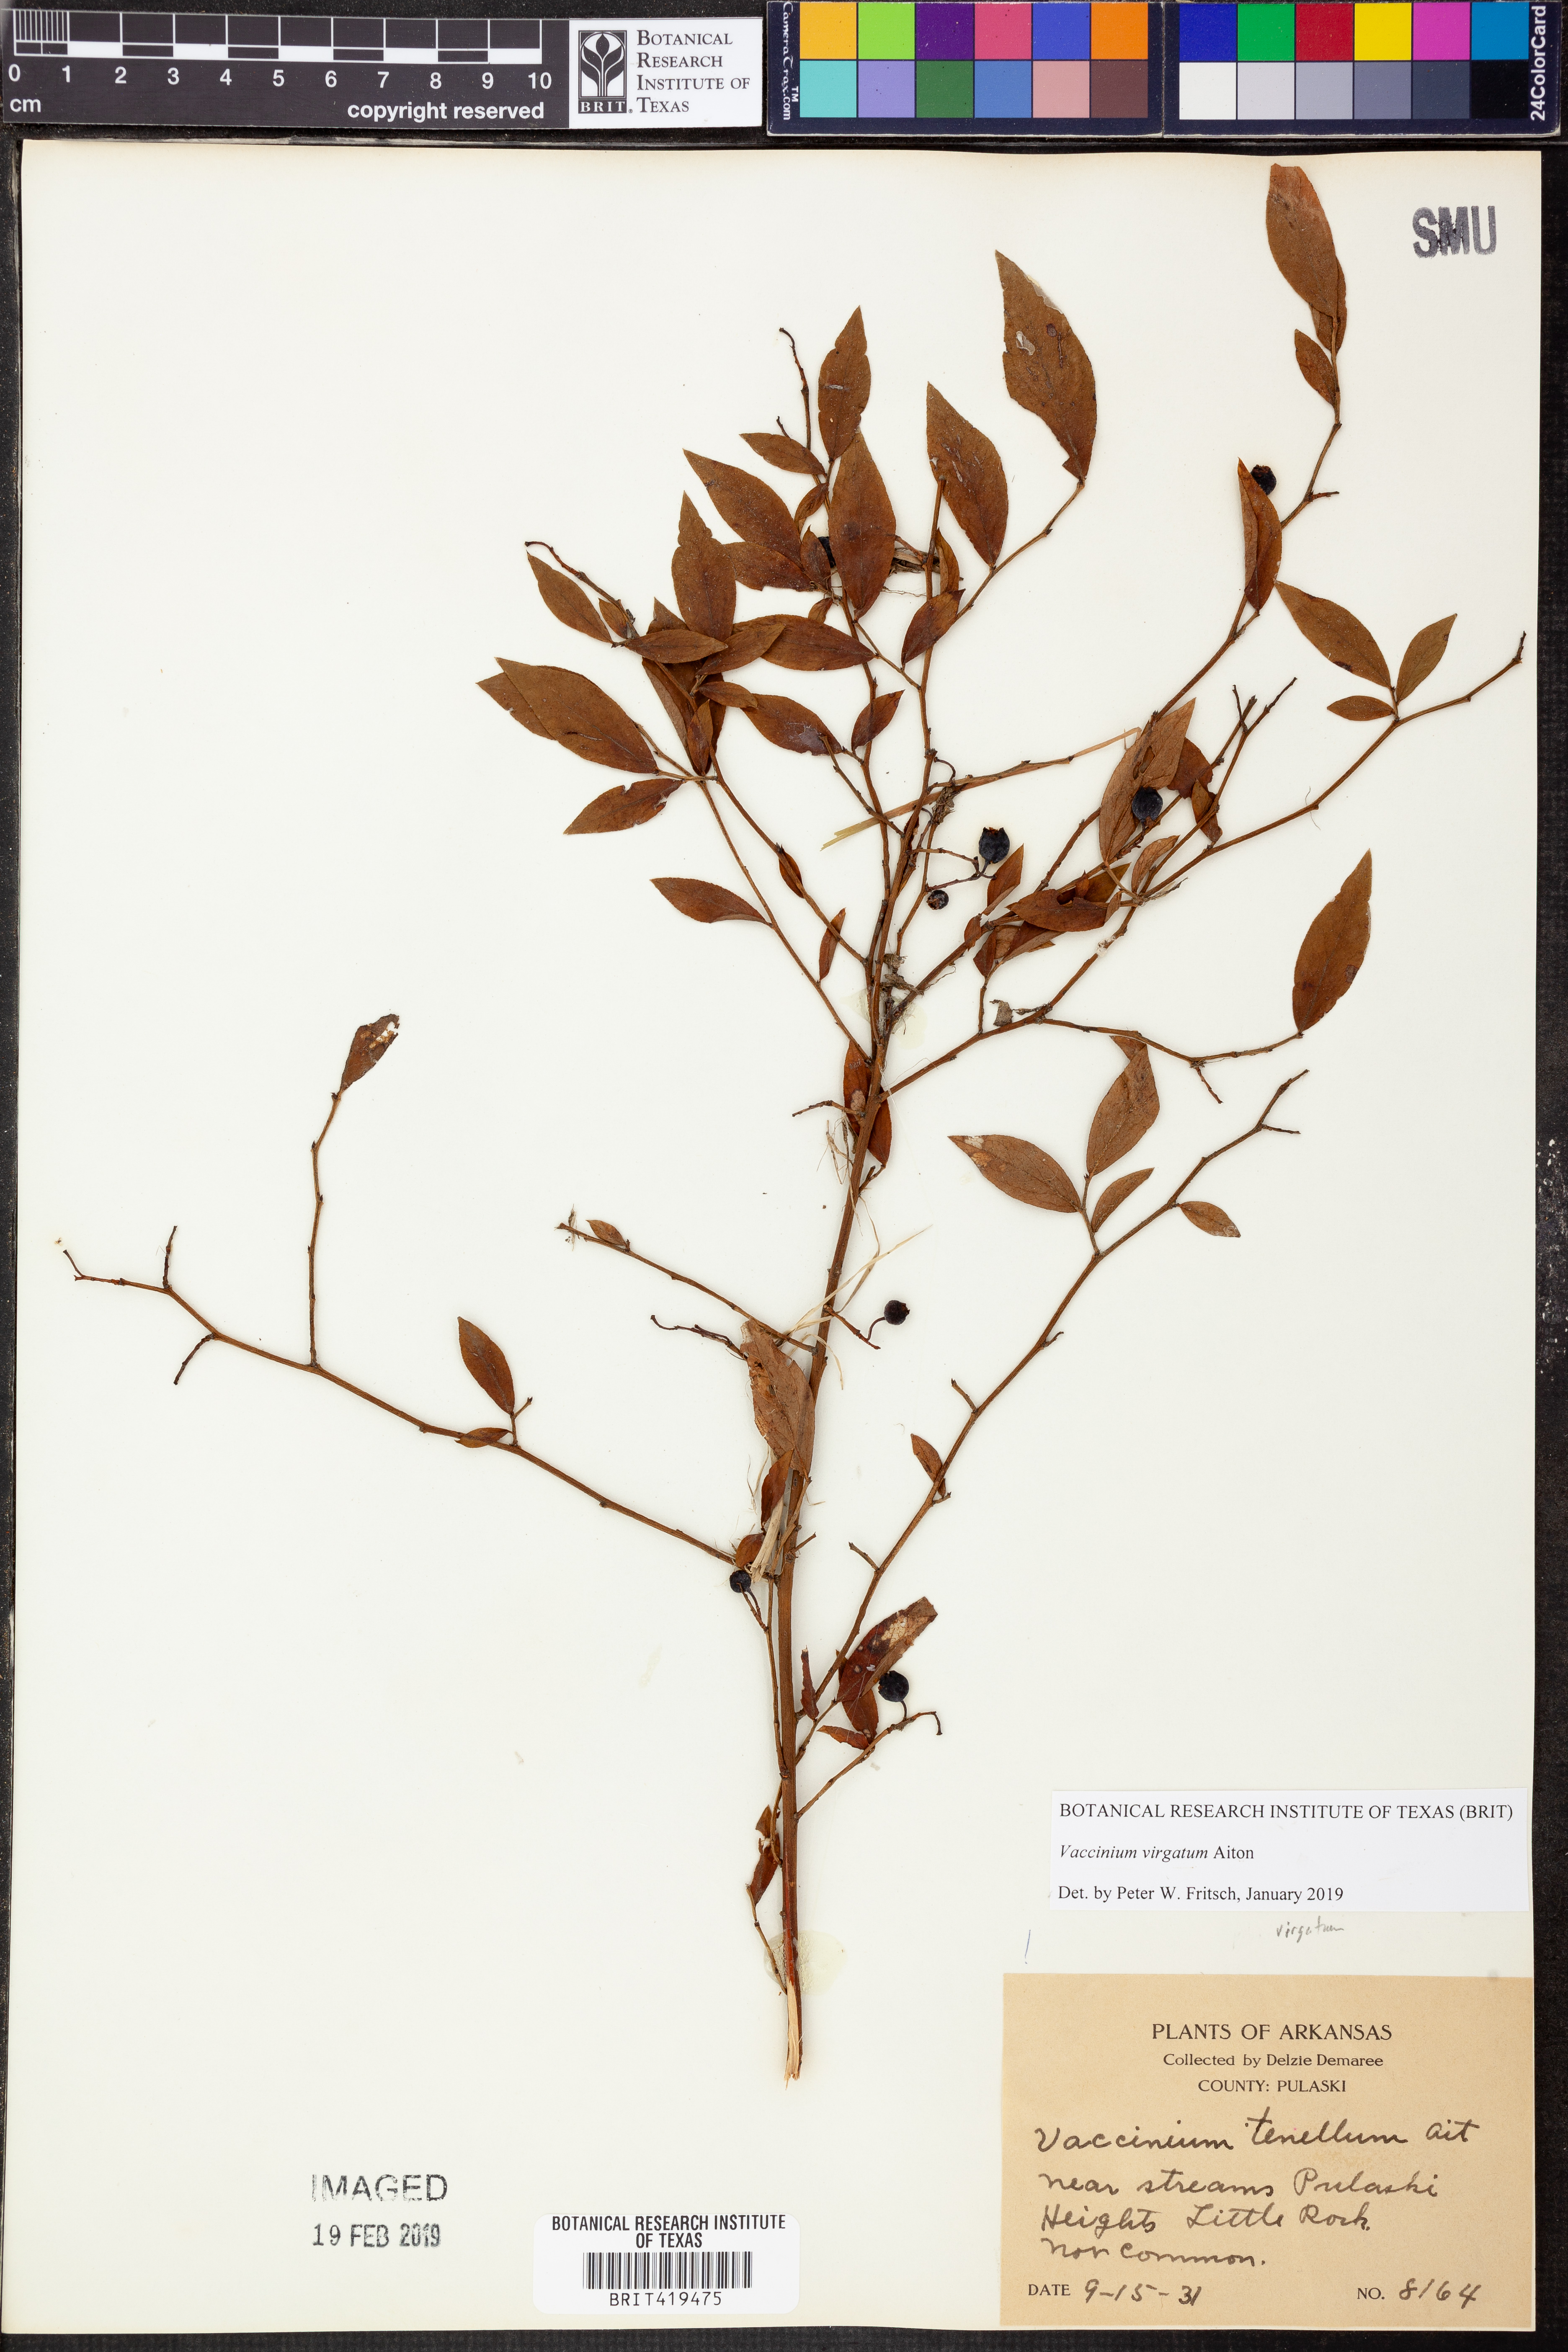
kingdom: Plantae
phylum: Tracheophyta
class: Magnoliopsida
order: Ericales
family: Ericaceae
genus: Vaccinium
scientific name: Vaccinium corymbosum
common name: Blueberry
